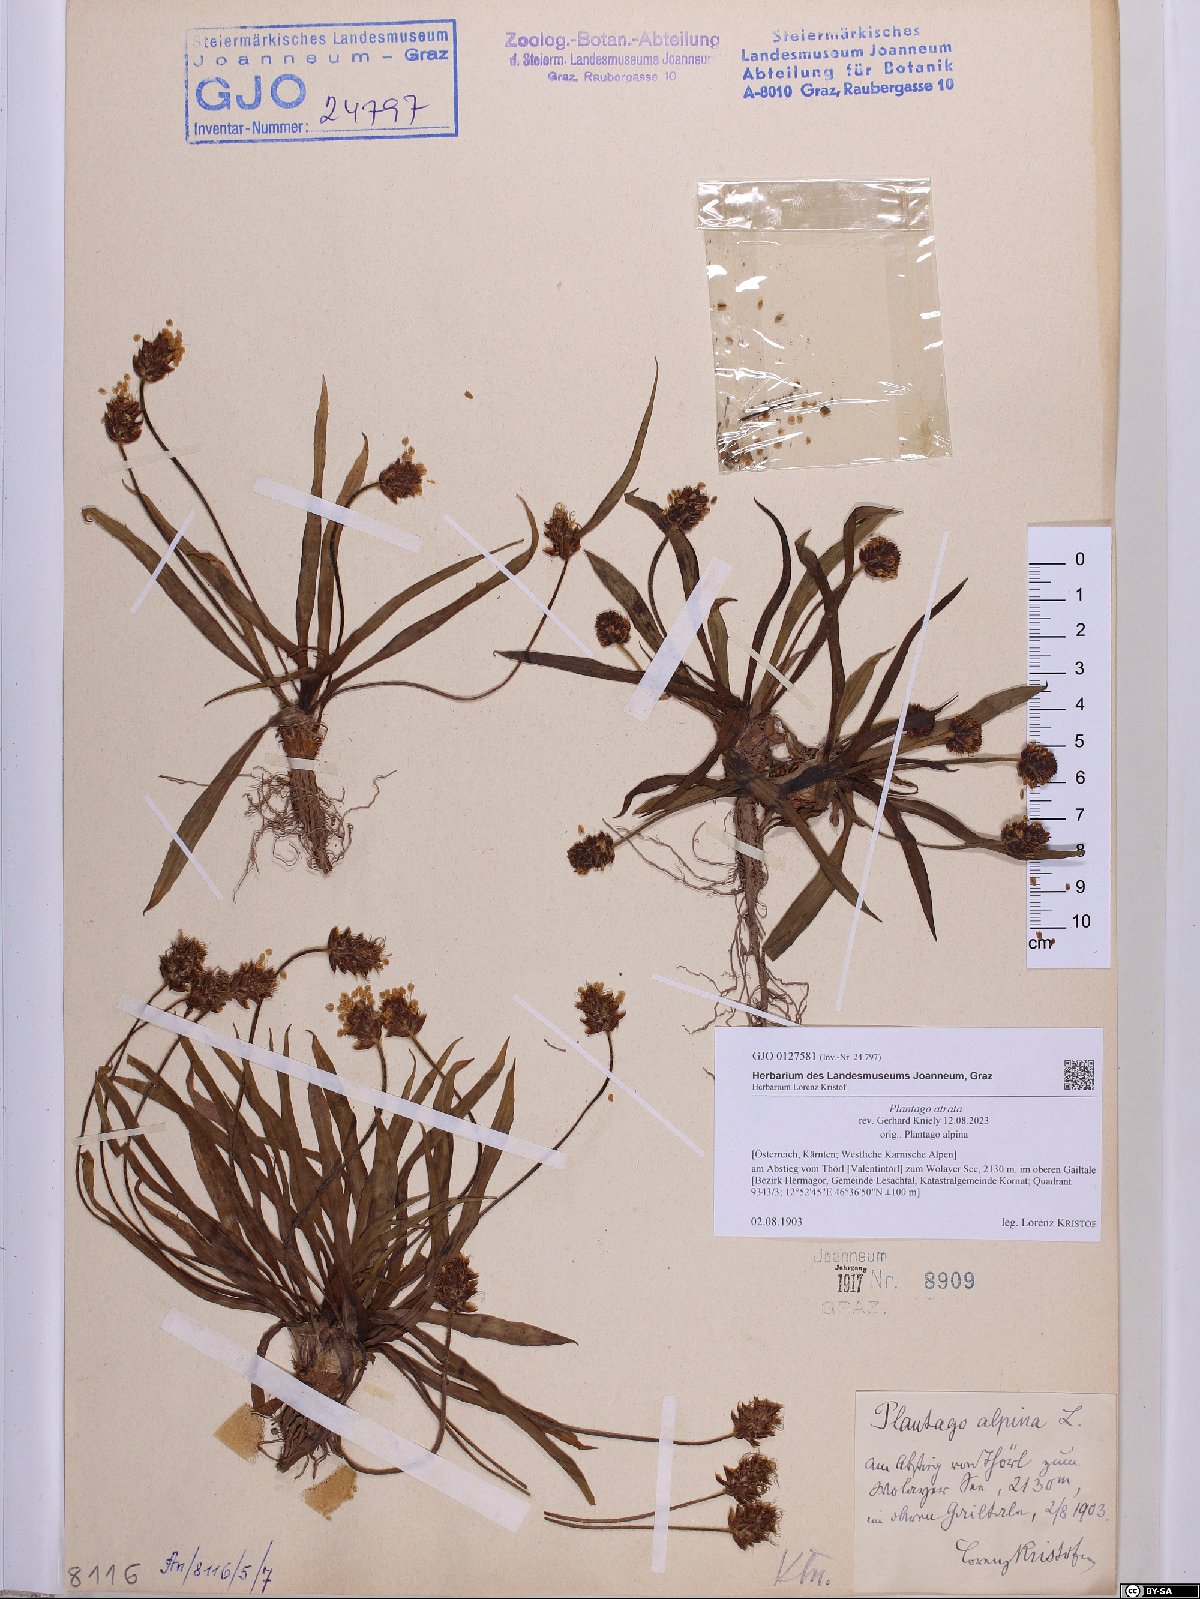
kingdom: Plantae
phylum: Tracheophyta
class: Magnoliopsida
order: Lamiales
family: Plantaginaceae
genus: Plantago
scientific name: Plantago atrata
